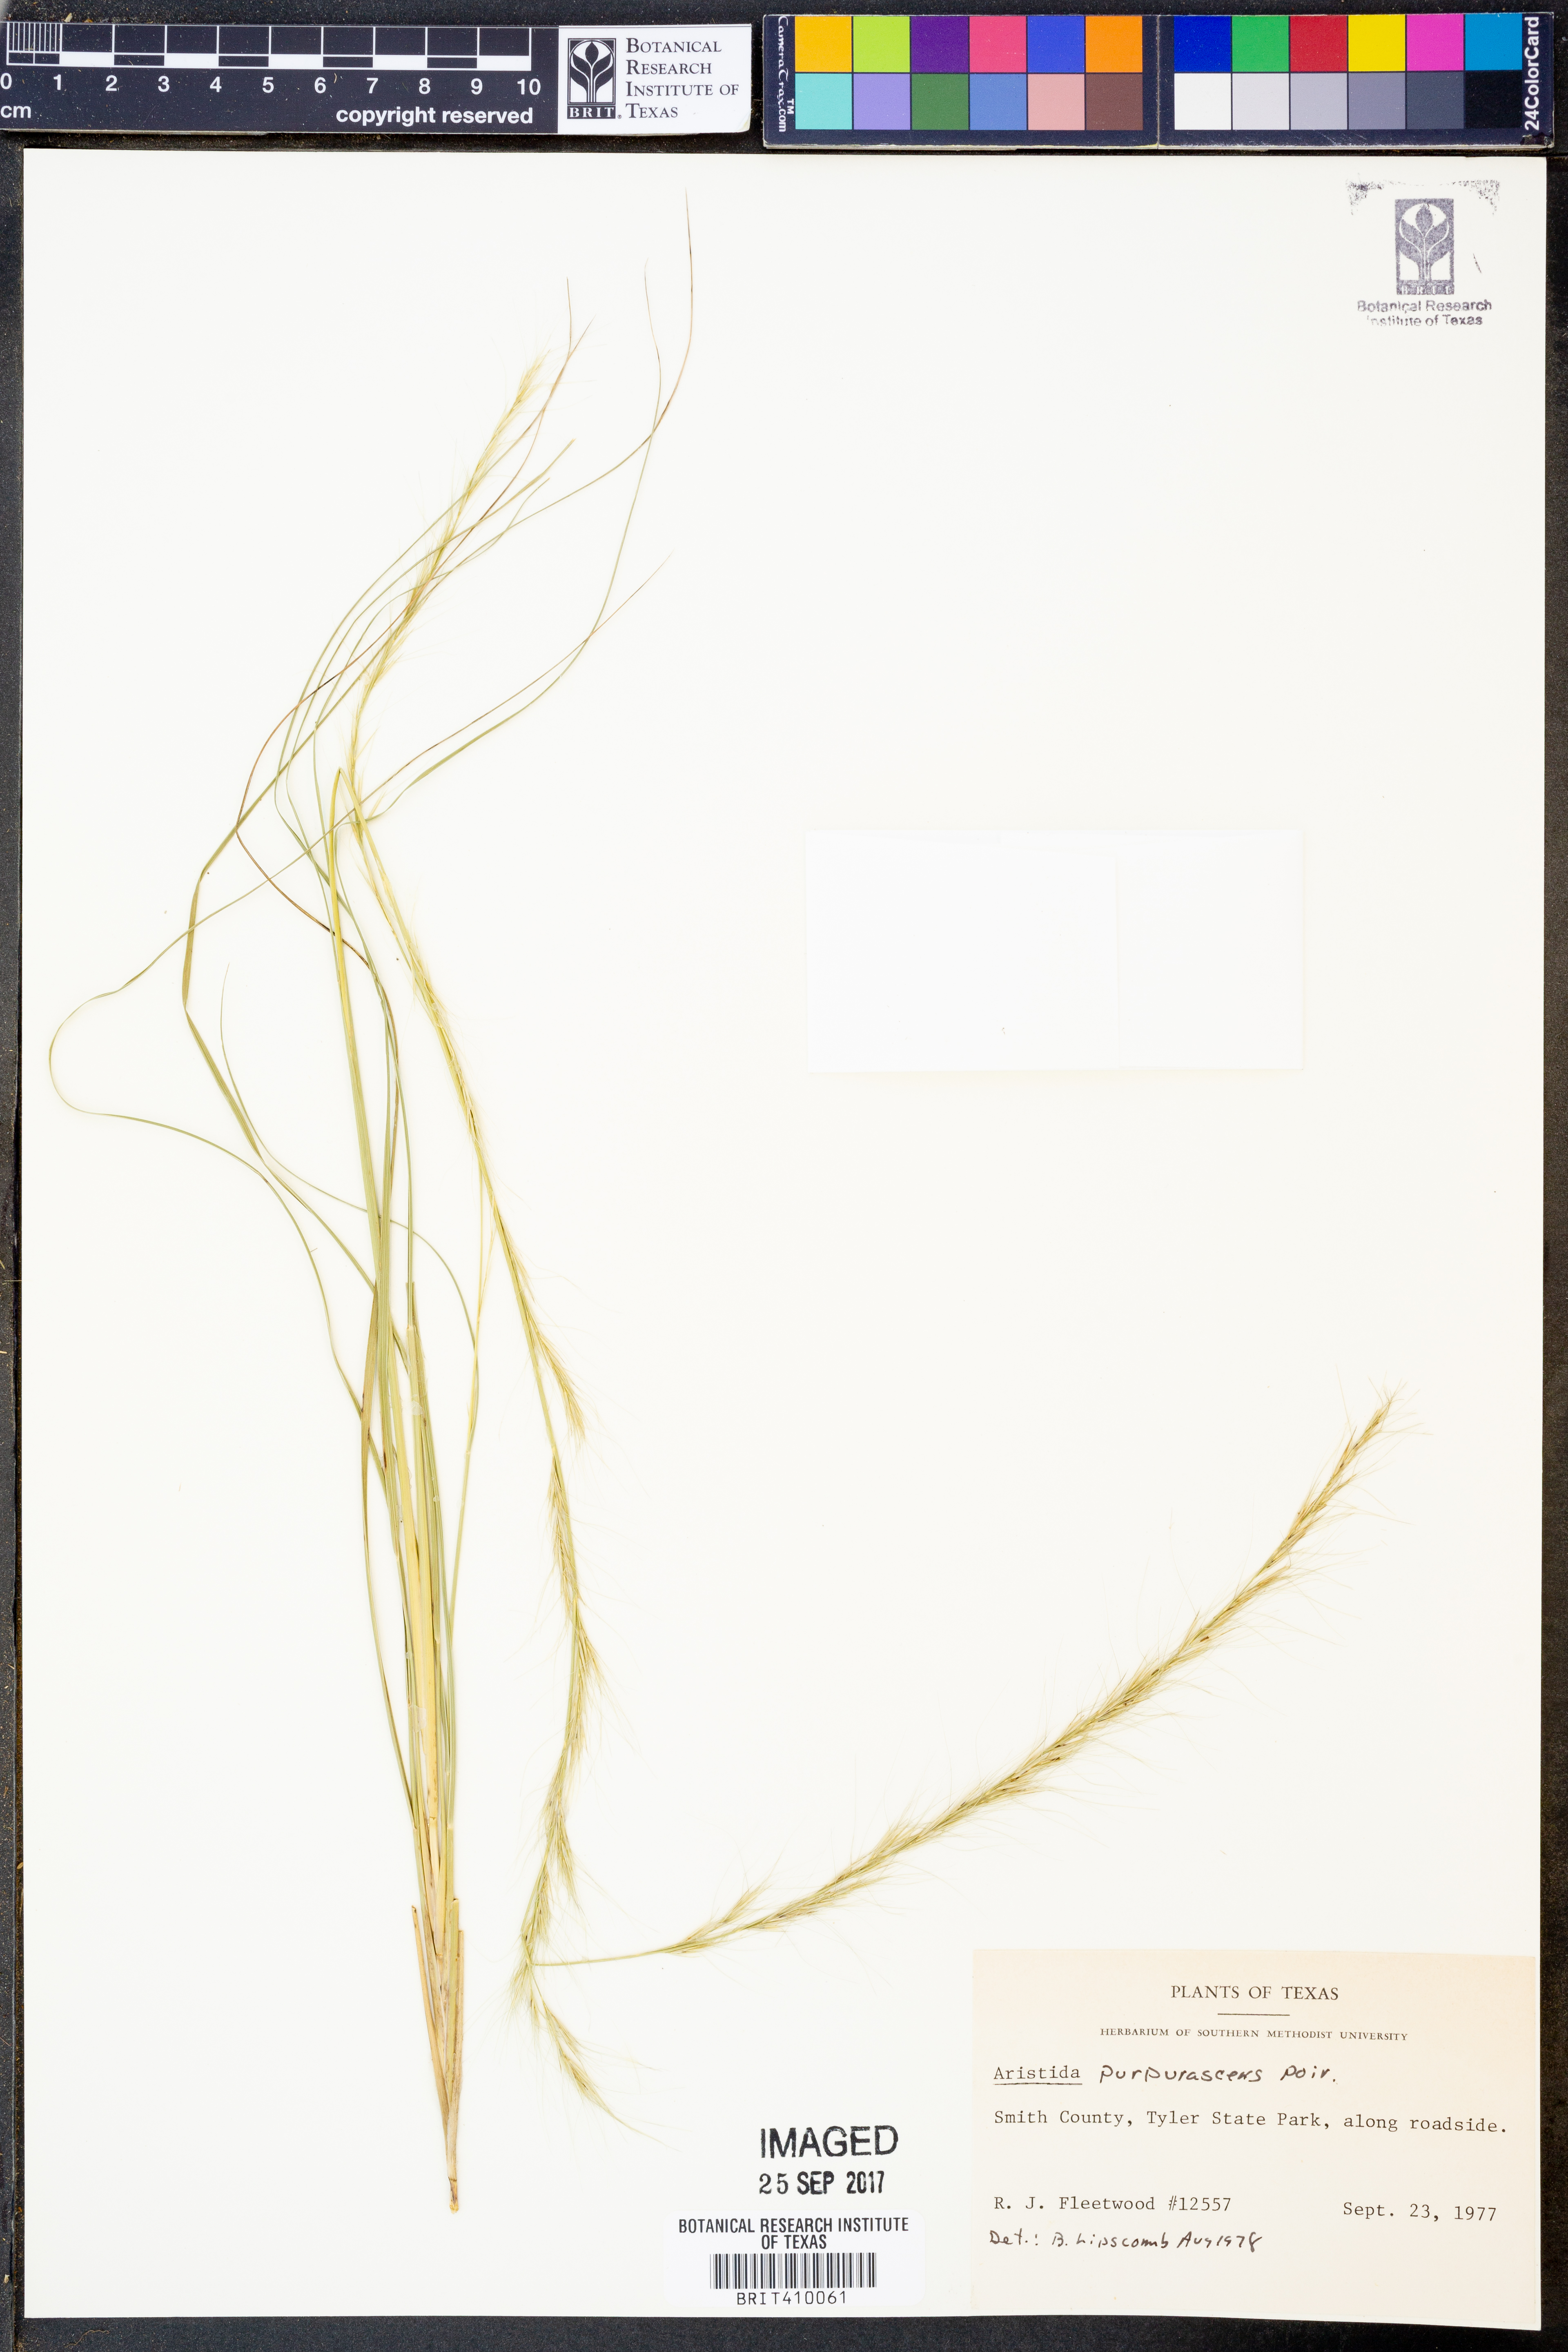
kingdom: Plantae
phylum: Tracheophyta
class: Liliopsida
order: Poales
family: Poaceae
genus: Aristida
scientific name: Aristida purpurascens
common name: Arrow-feather
